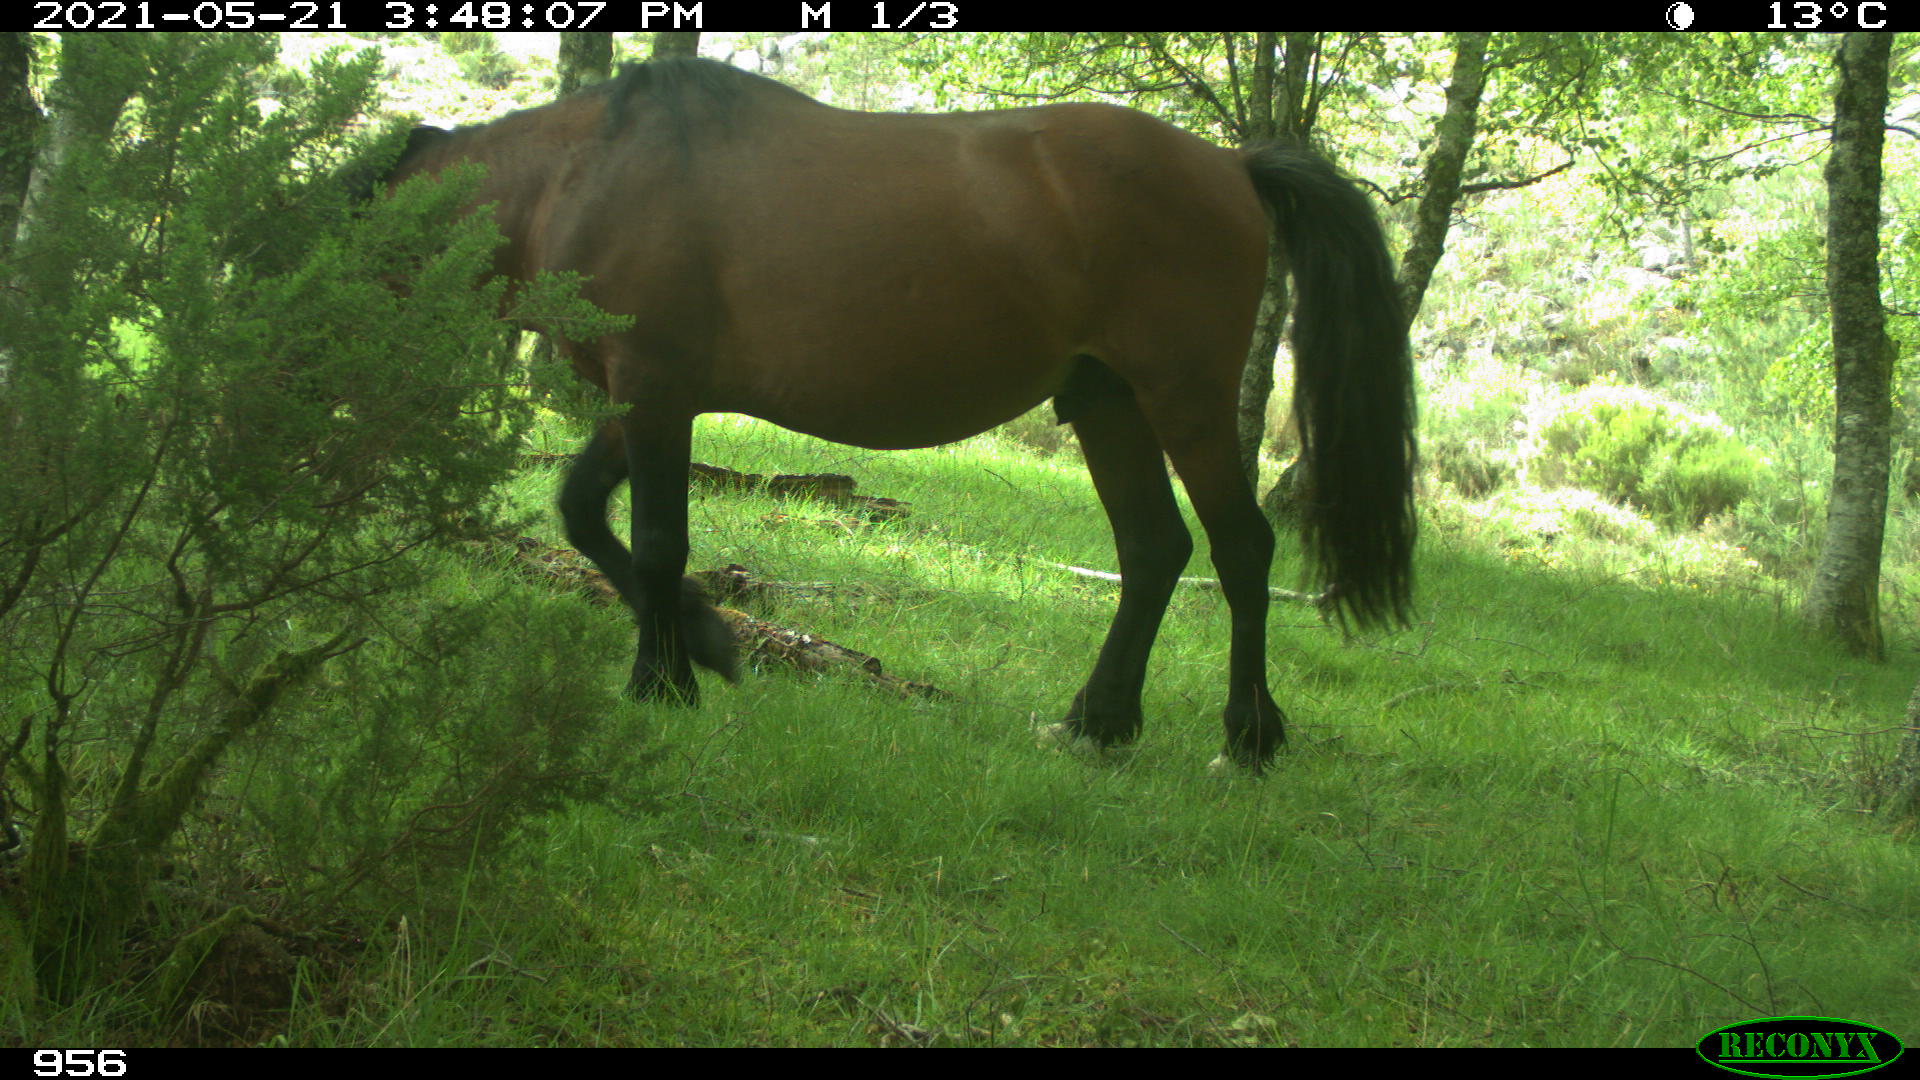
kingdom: Animalia
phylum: Chordata
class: Mammalia
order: Perissodactyla
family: Equidae
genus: Equus
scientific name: Equus caballus
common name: Horse
